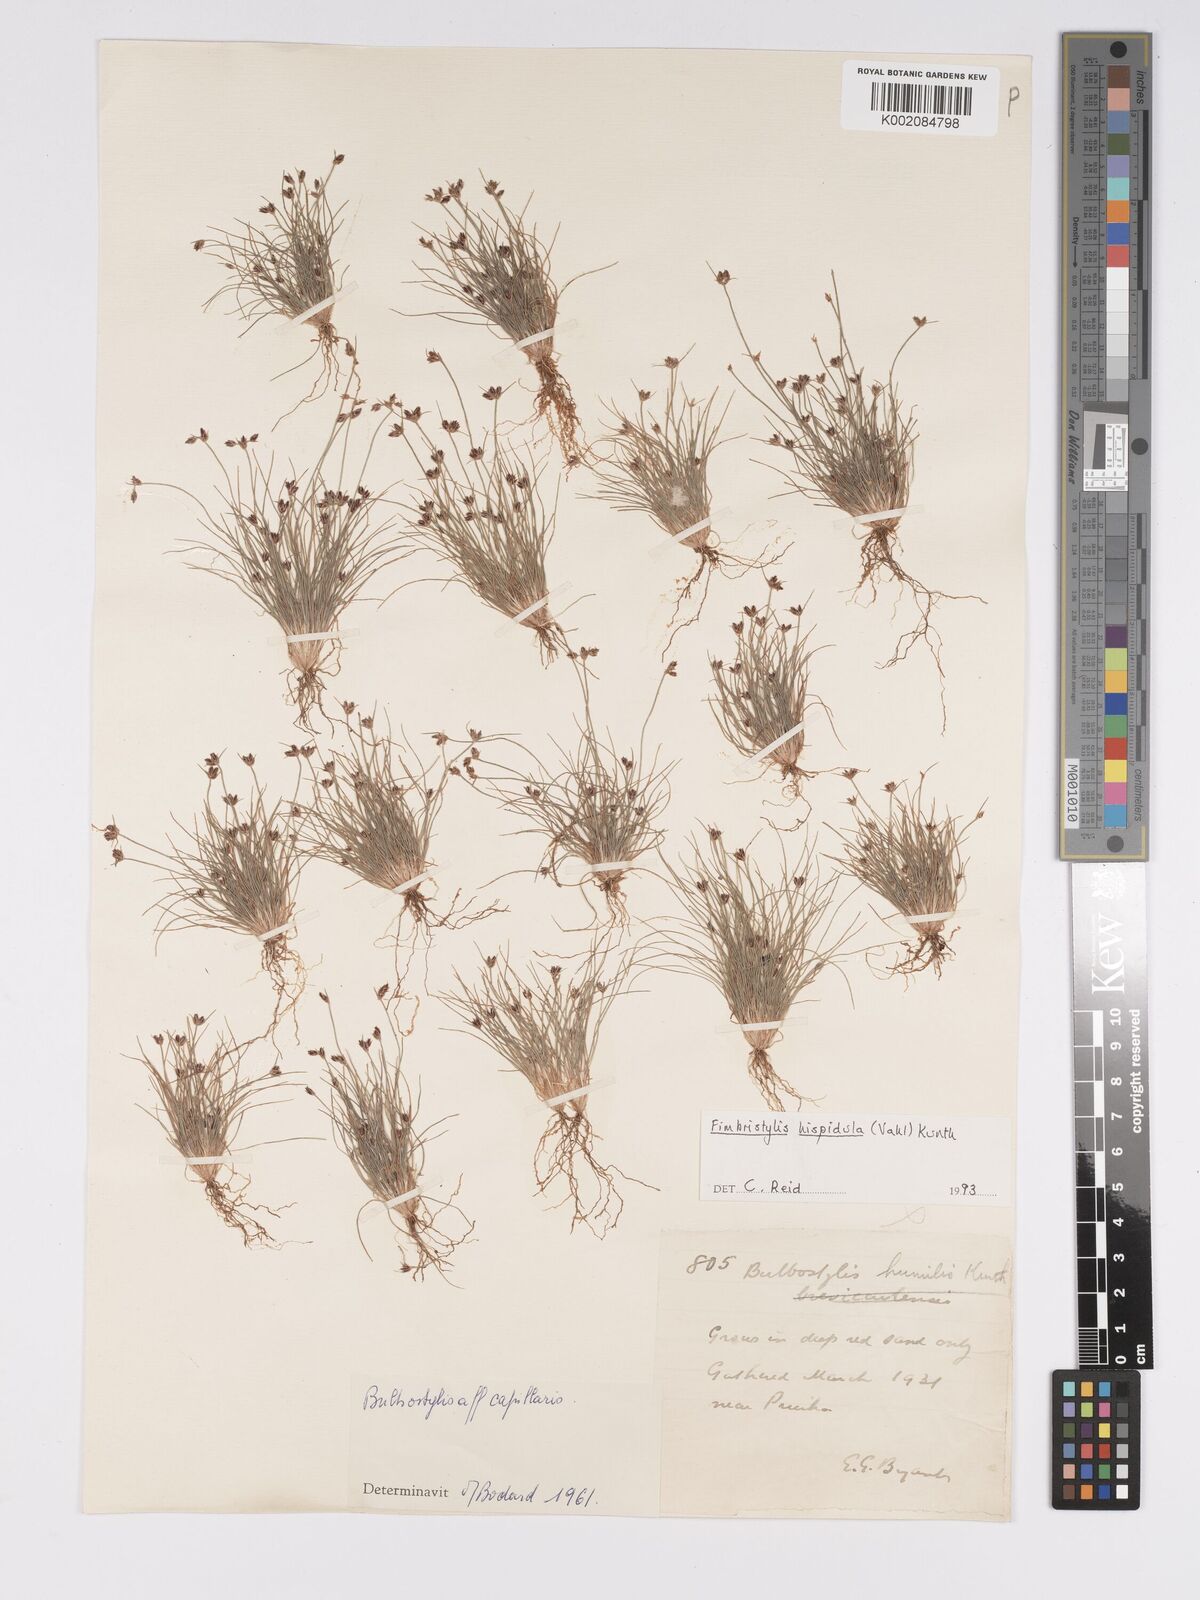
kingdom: Plantae
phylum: Tracheophyta
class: Liliopsida
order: Poales
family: Cyperaceae
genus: Bulbostylis
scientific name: Bulbostylis hispidula
